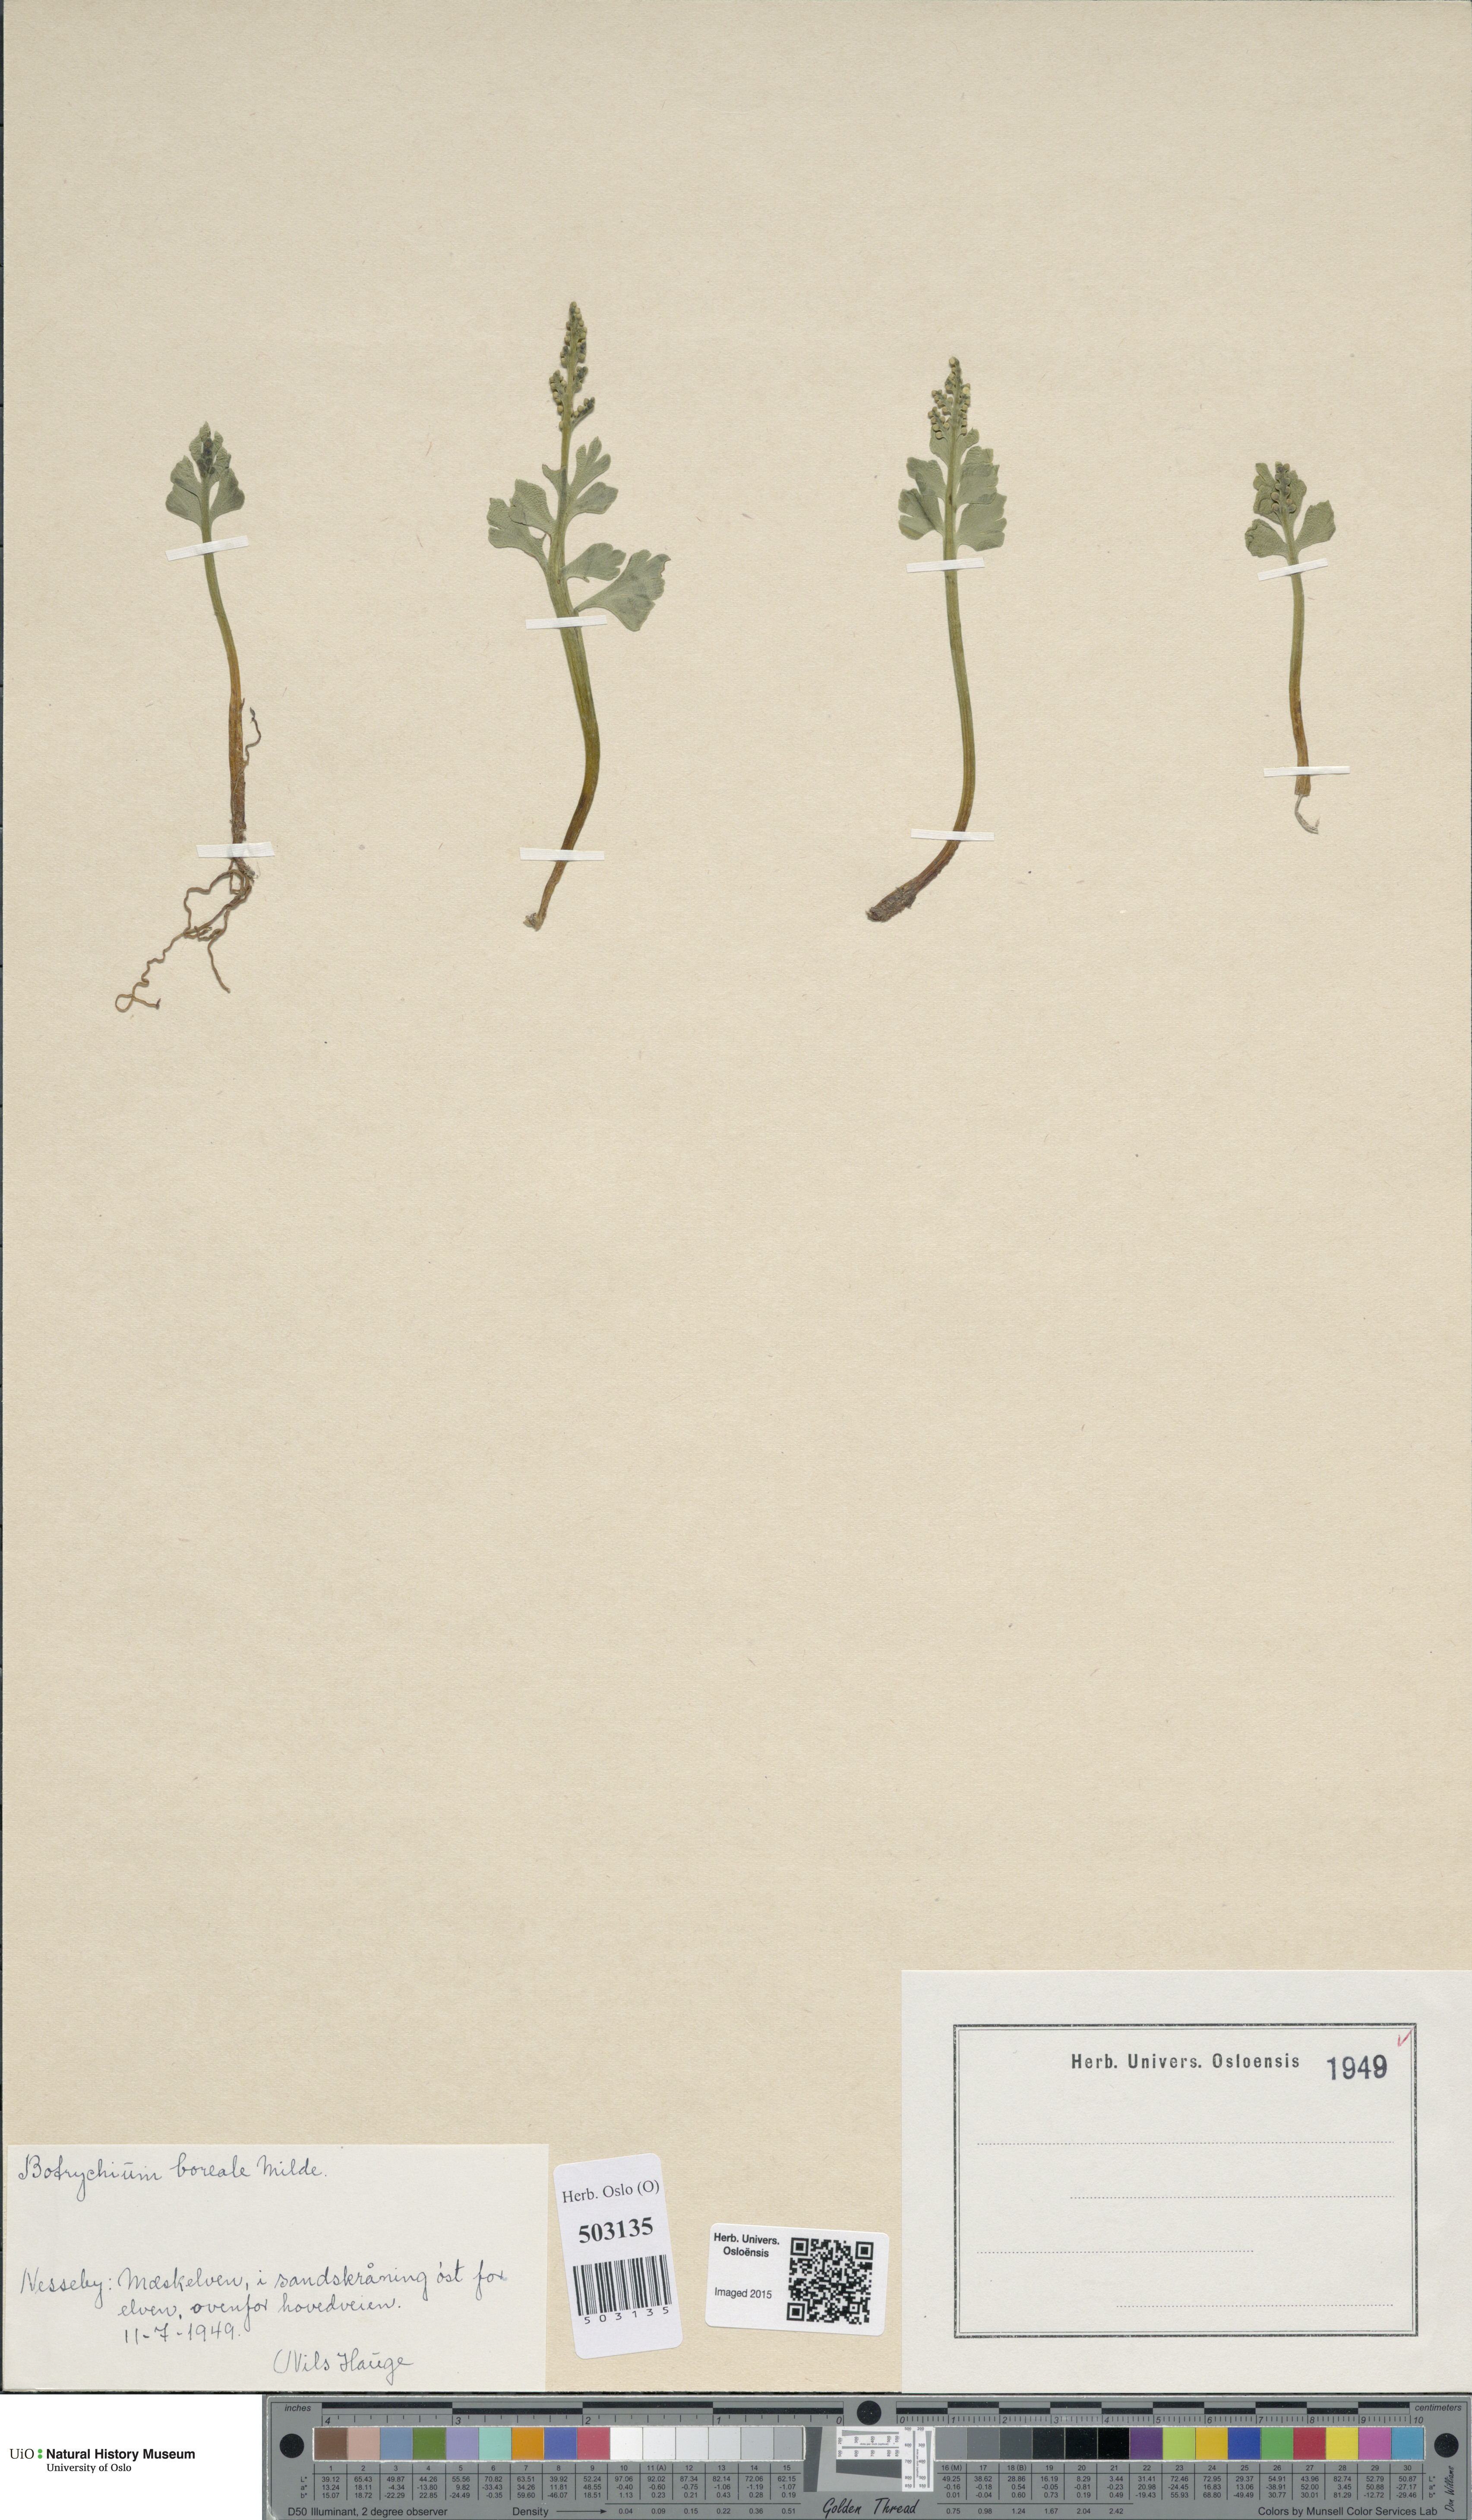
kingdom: Plantae
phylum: Tracheophyta
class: Polypodiopsida
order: Ophioglossales
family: Ophioglossaceae
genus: Botrychium
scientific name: Botrychium boreale
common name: Boreal moonwort
